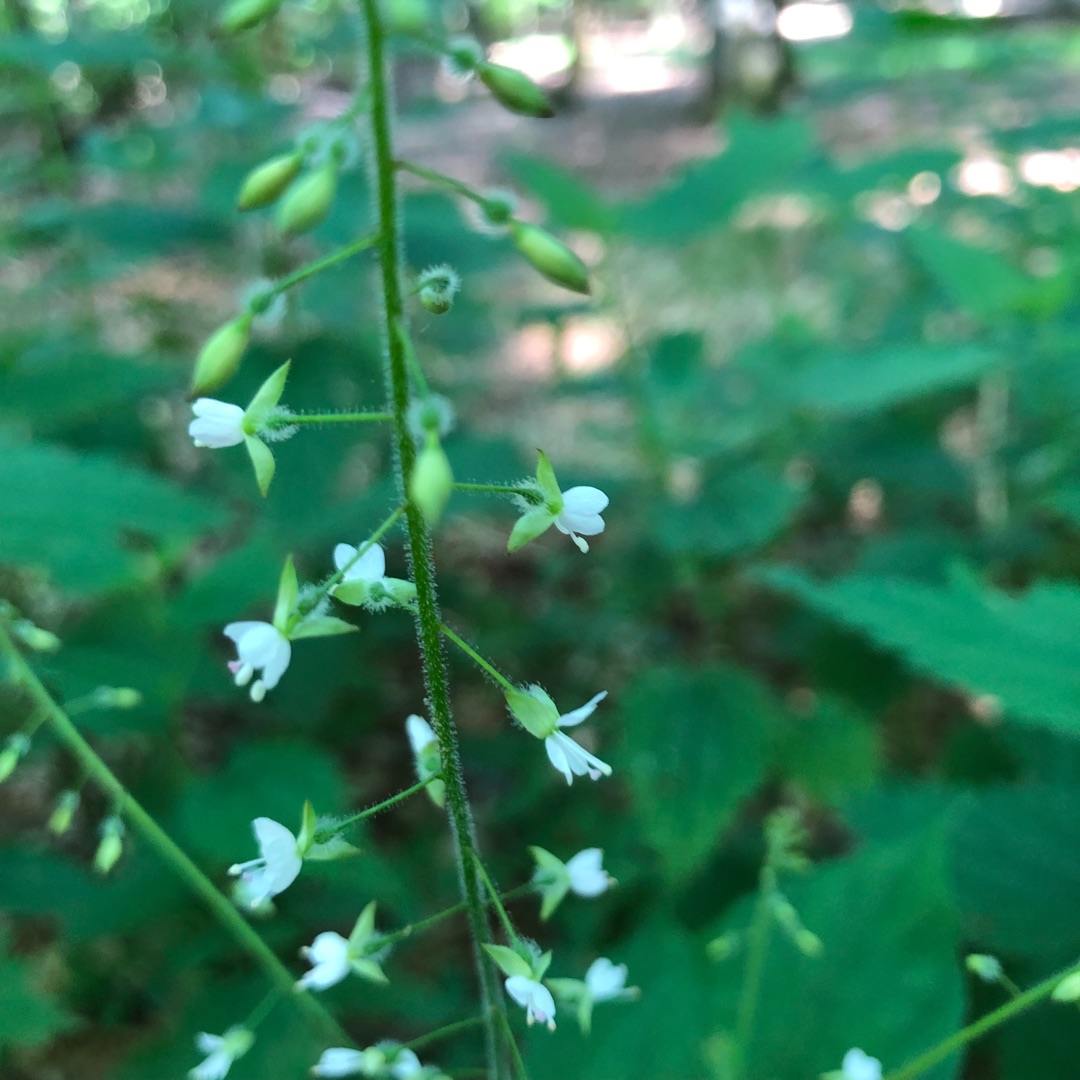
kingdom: Plantae
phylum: Tracheophyta
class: Magnoliopsida
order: Myrtales
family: Onagraceae
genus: Circaea
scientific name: Circaea lutetiana
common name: Dunet steffensurt
